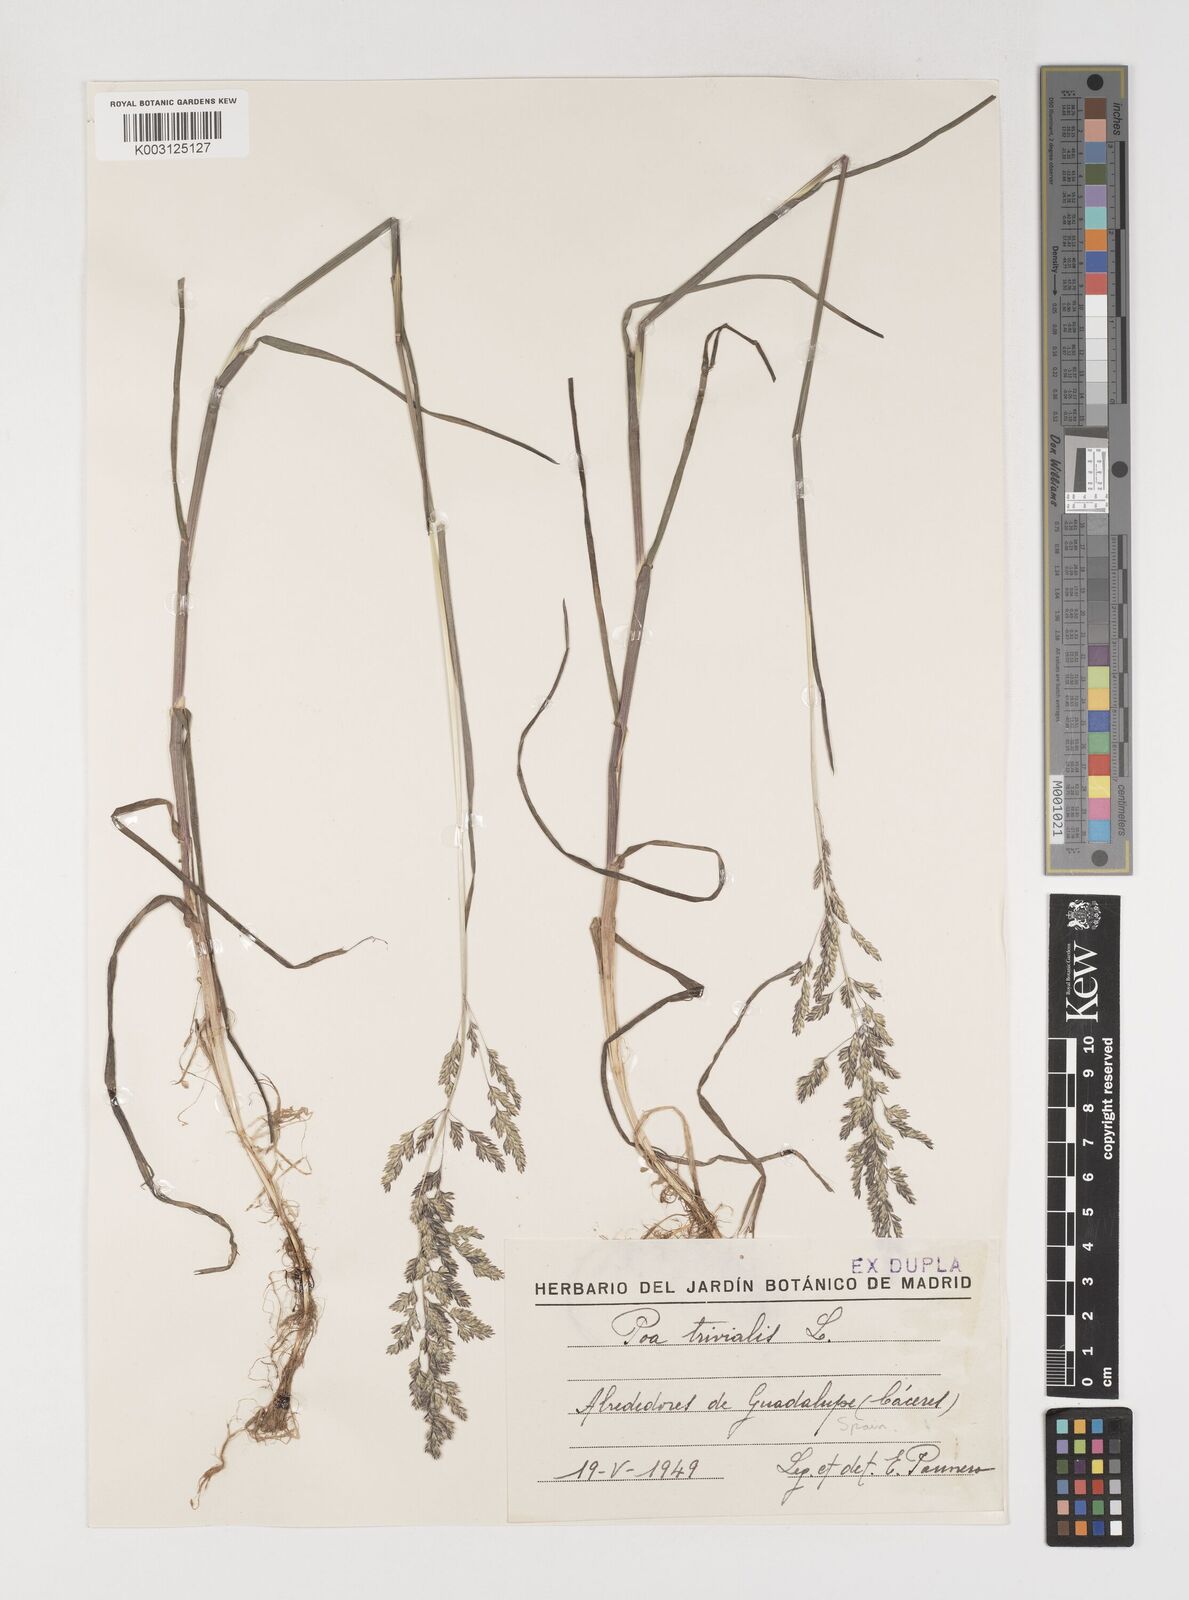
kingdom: Plantae
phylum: Tracheophyta
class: Liliopsida
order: Poales
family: Poaceae
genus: Poa
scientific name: Poa trivialis
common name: Rough bluegrass
